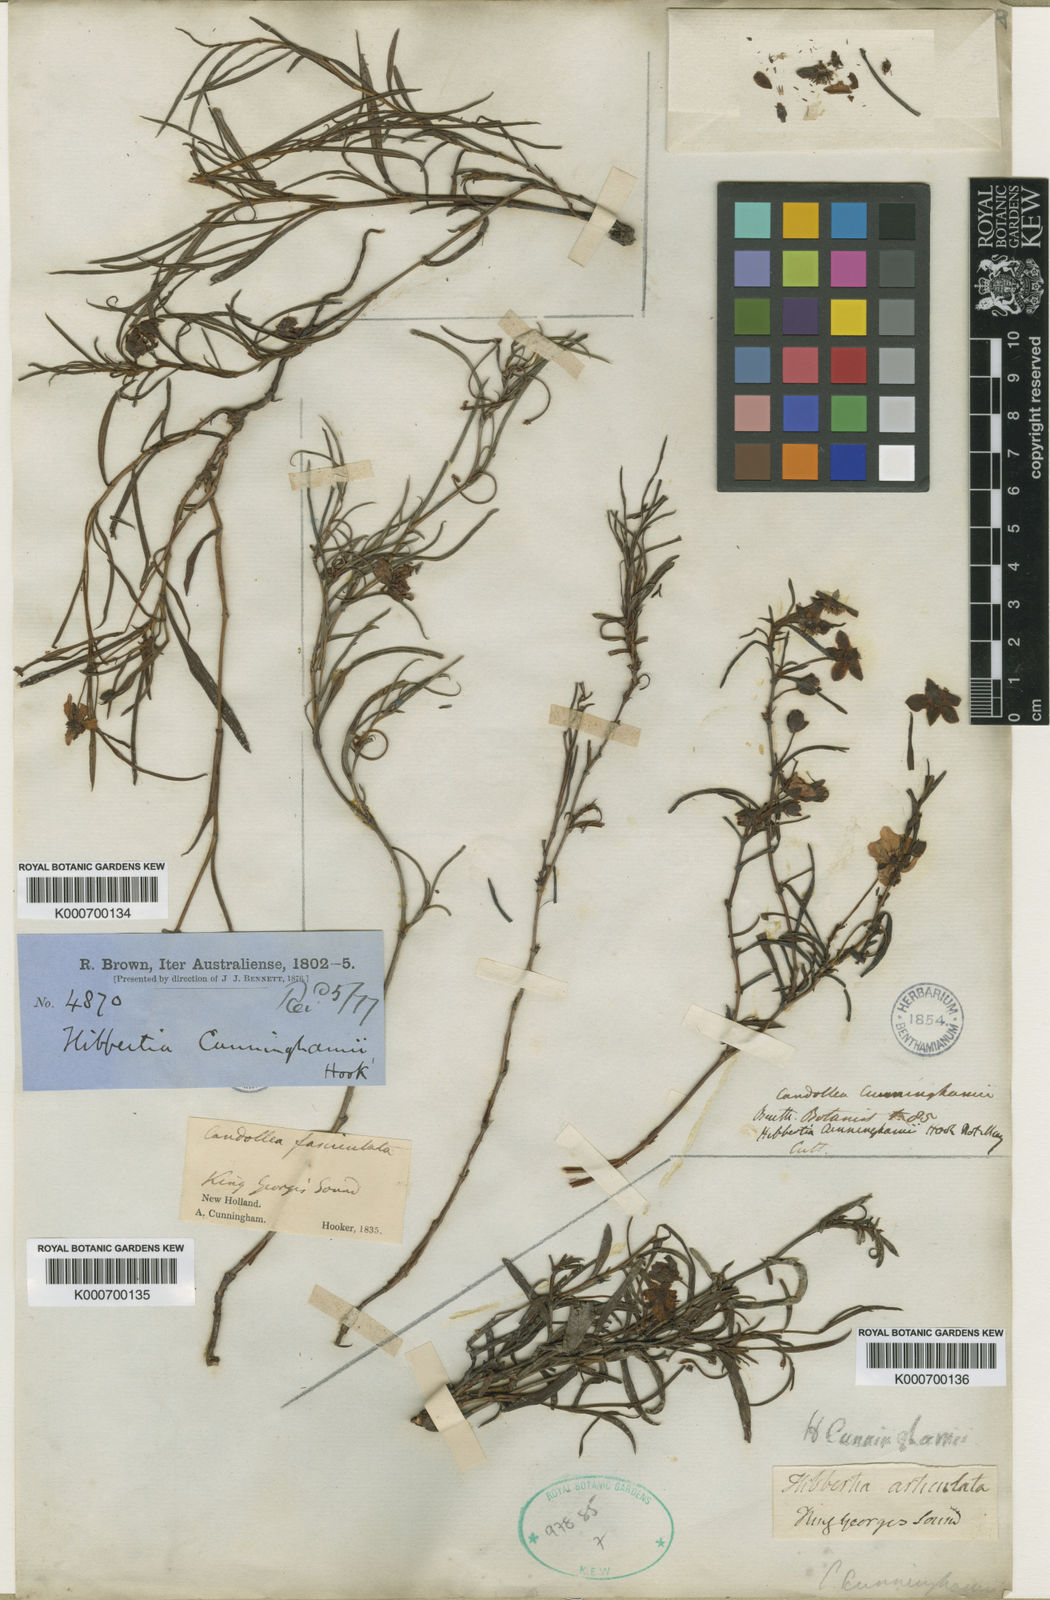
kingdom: Plantae
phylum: Tracheophyta
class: Magnoliopsida
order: Dilleniales
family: Dilleniaceae
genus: Hibbertia
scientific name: Hibbertia cunninghamii
